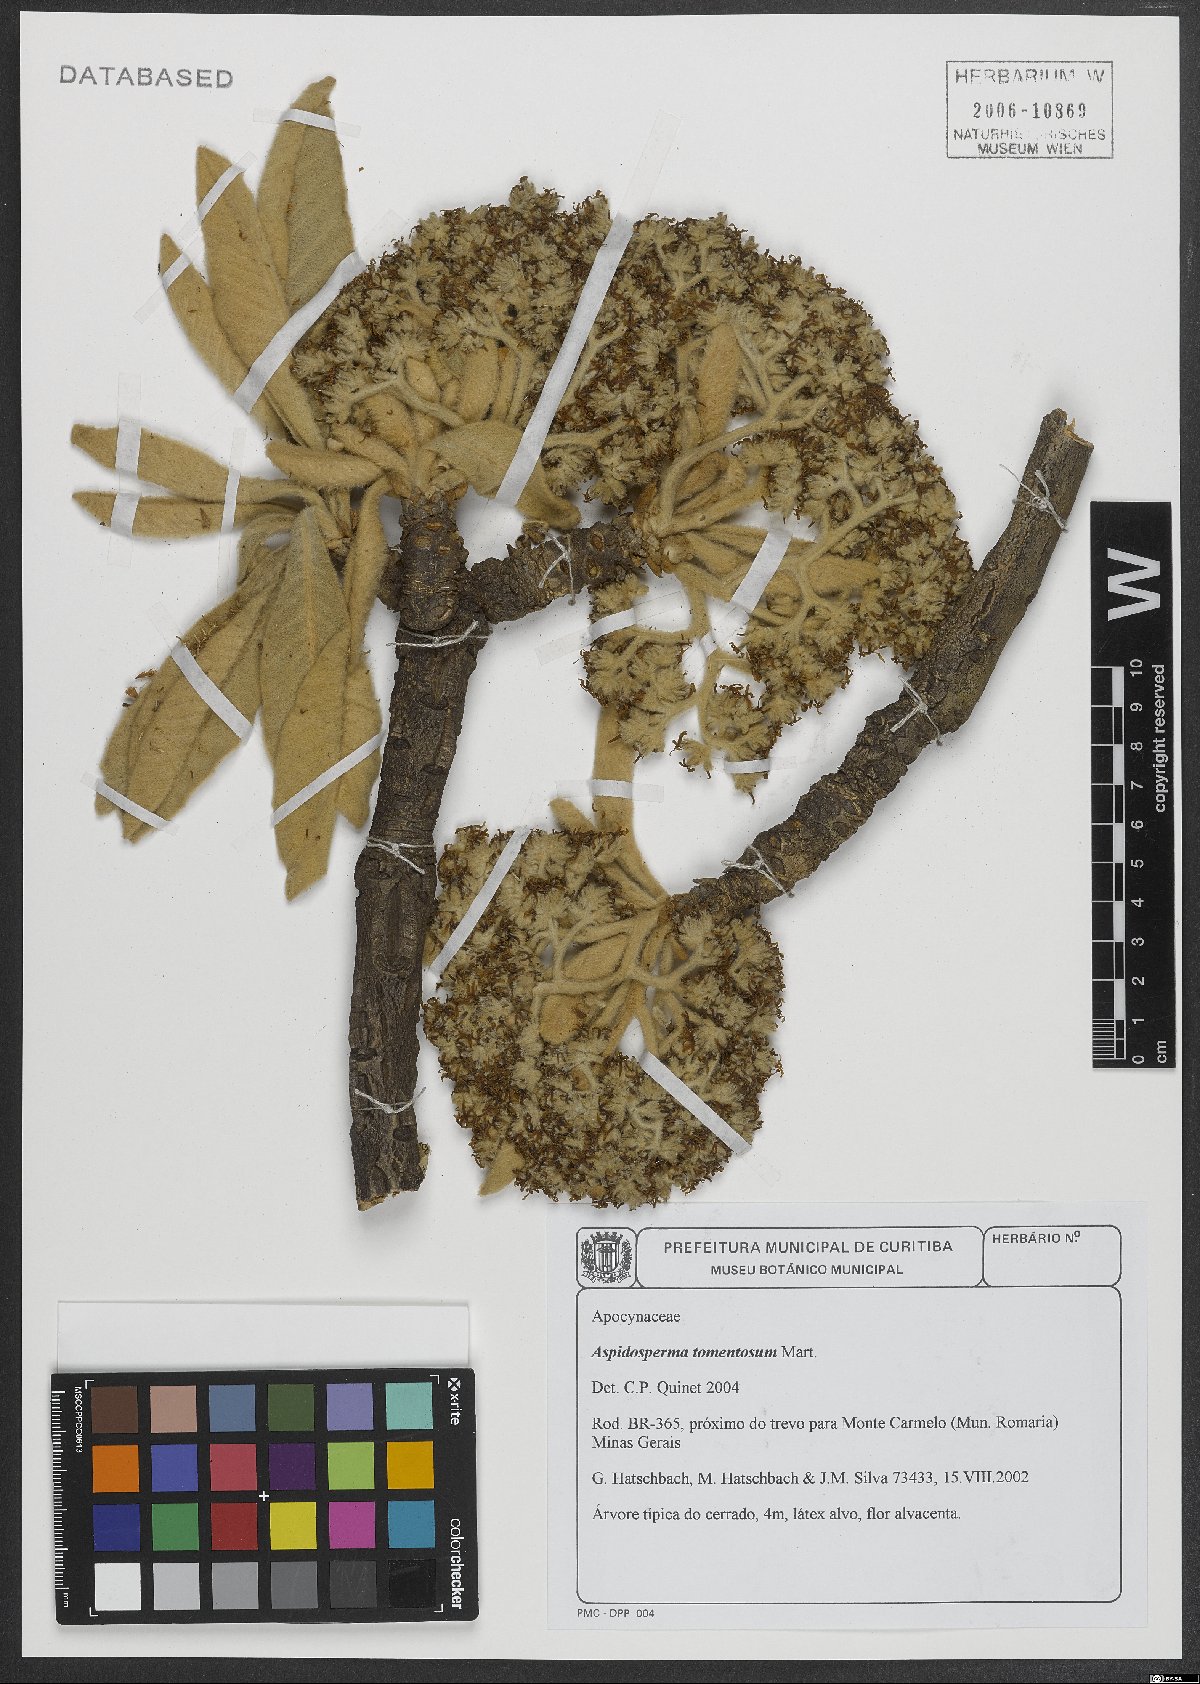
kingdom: Plantae
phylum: Tracheophyta
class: Magnoliopsida
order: Gentianales
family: Apocynaceae
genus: Aspidosperma
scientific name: Aspidosperma tomentosum
